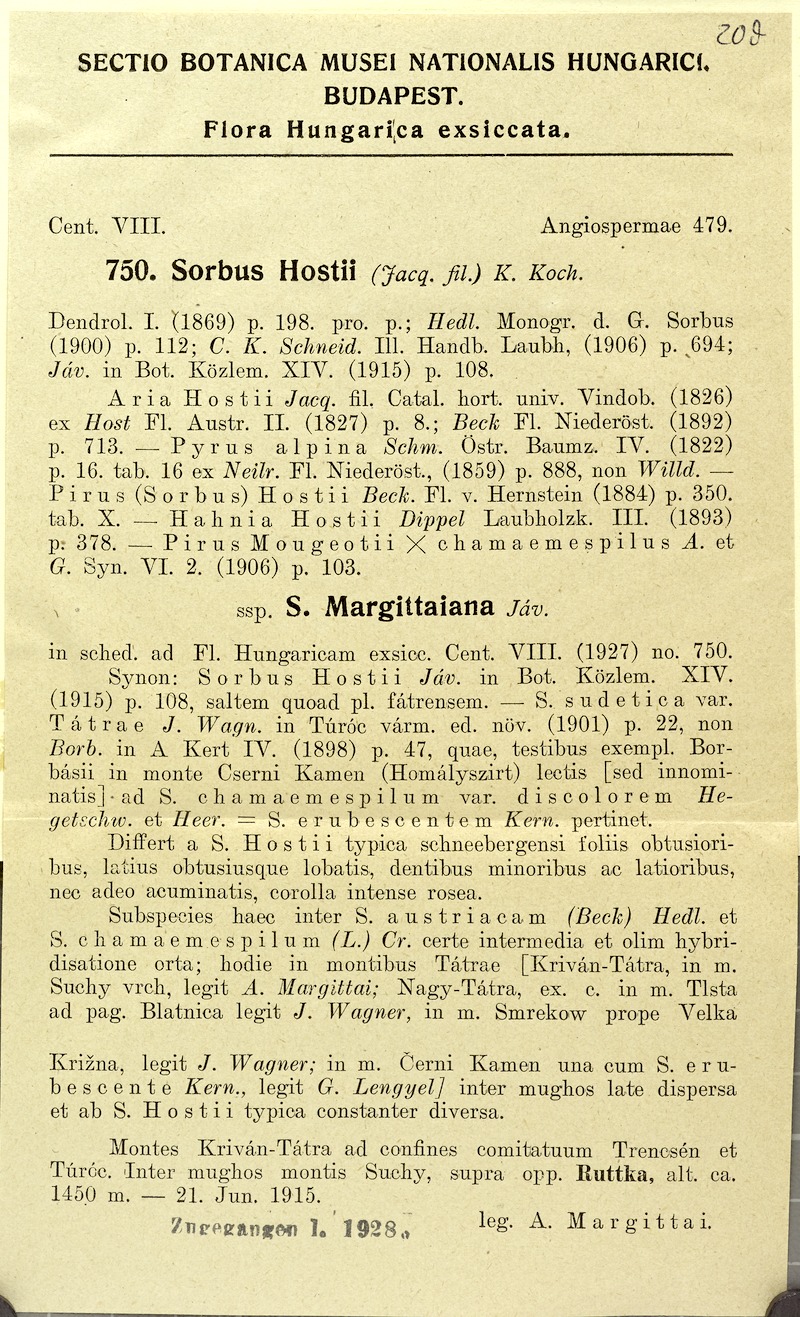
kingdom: Plantae
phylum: Tracheophyta
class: Magnoliopsida
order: Rosales
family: Rosaceae
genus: Normeyera
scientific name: Normeyera margittaiana
